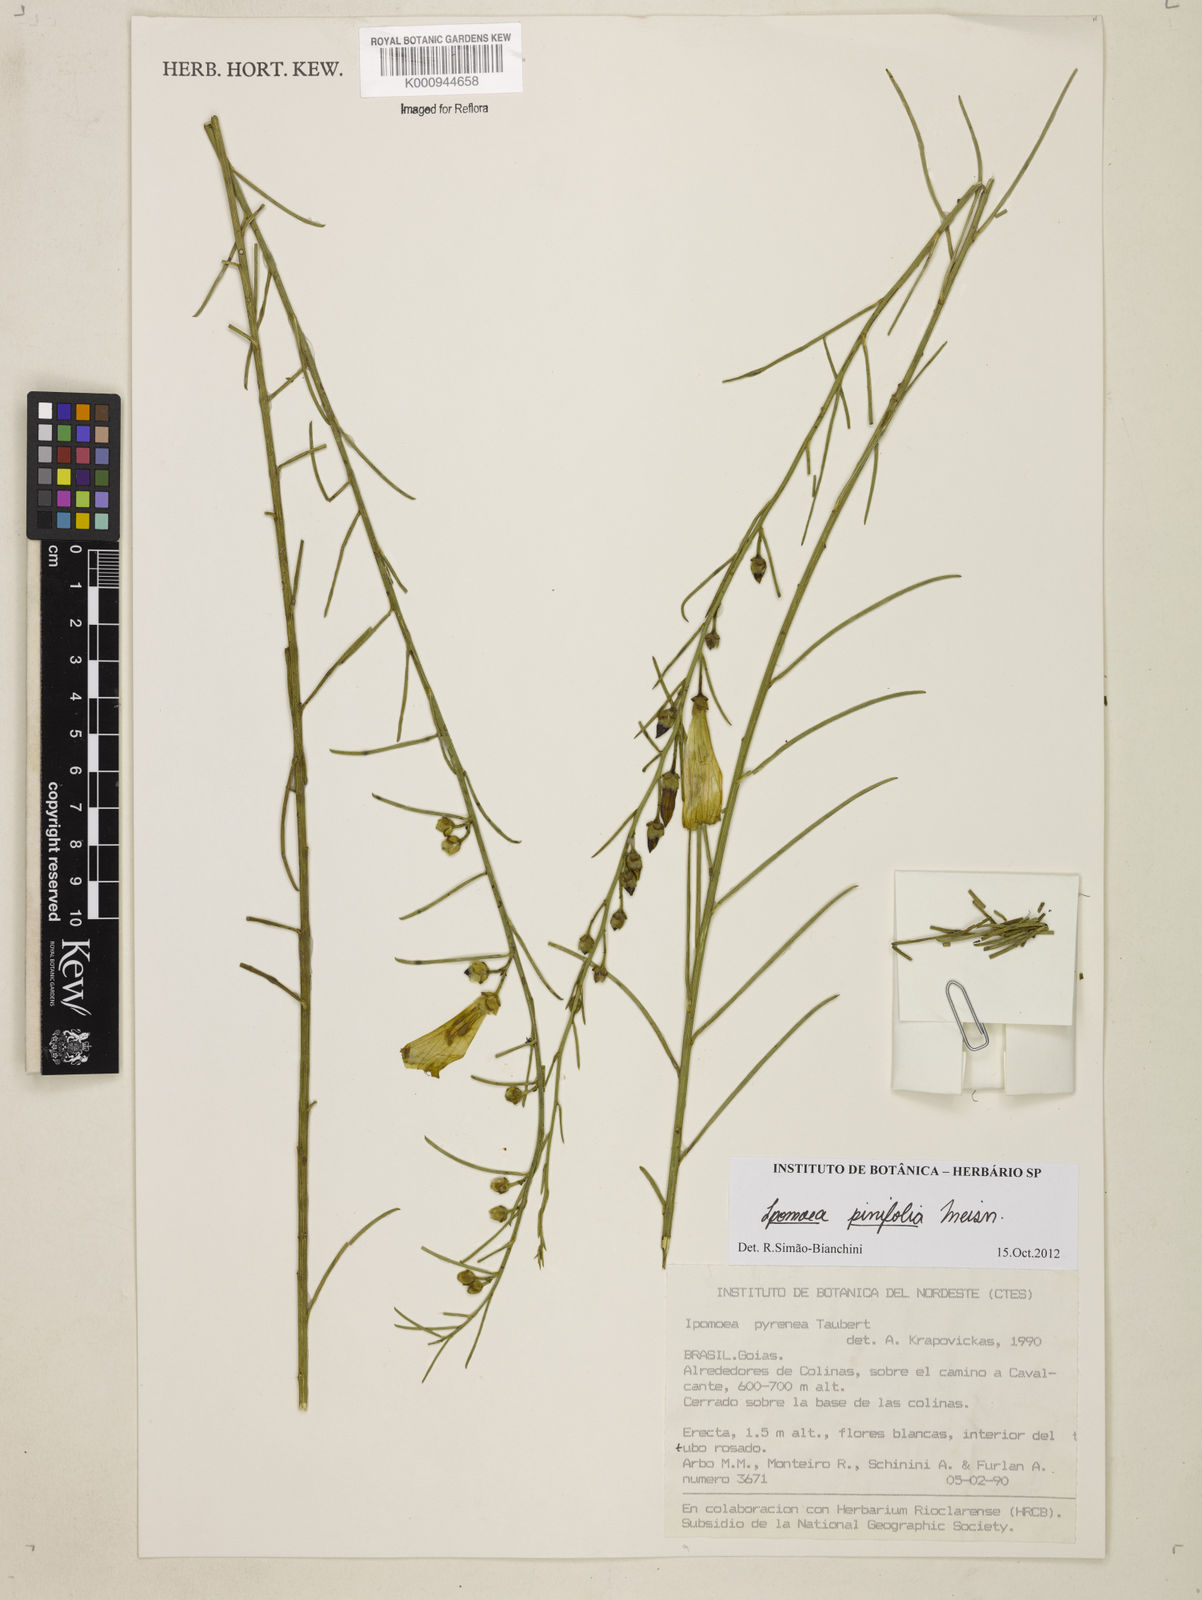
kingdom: Plantae
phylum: Tracheophyta
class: Magnoliopsida
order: Solanales
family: Convolvulaceae
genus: Ipomoea
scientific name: Ipomoea pinifolia
